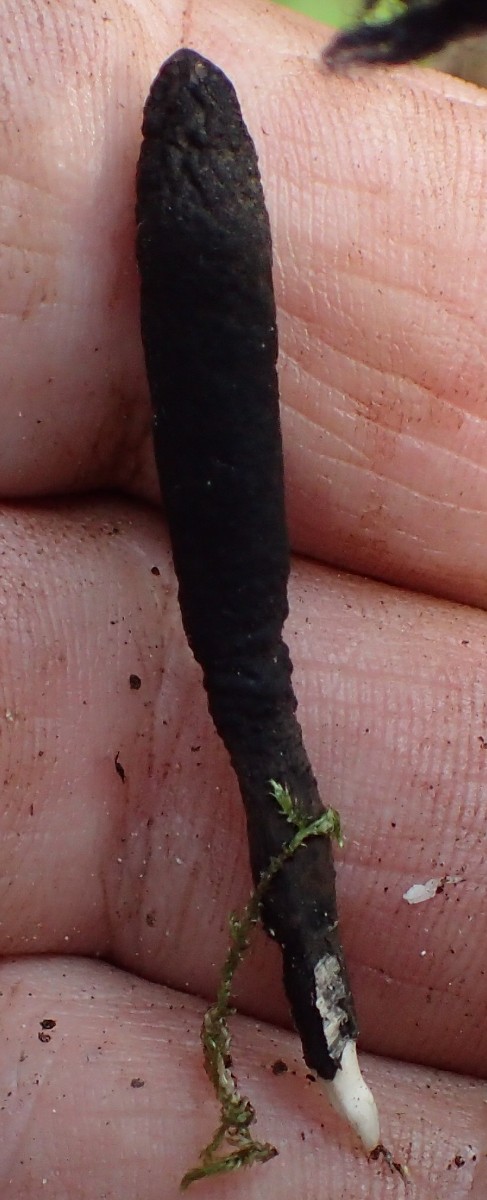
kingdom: Fungi
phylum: Ascomycota
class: Sordariomycetes
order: Xylariales
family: Xylariaceae
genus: Xylaria
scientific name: Xylaria longipes
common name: slank stødsvamp
